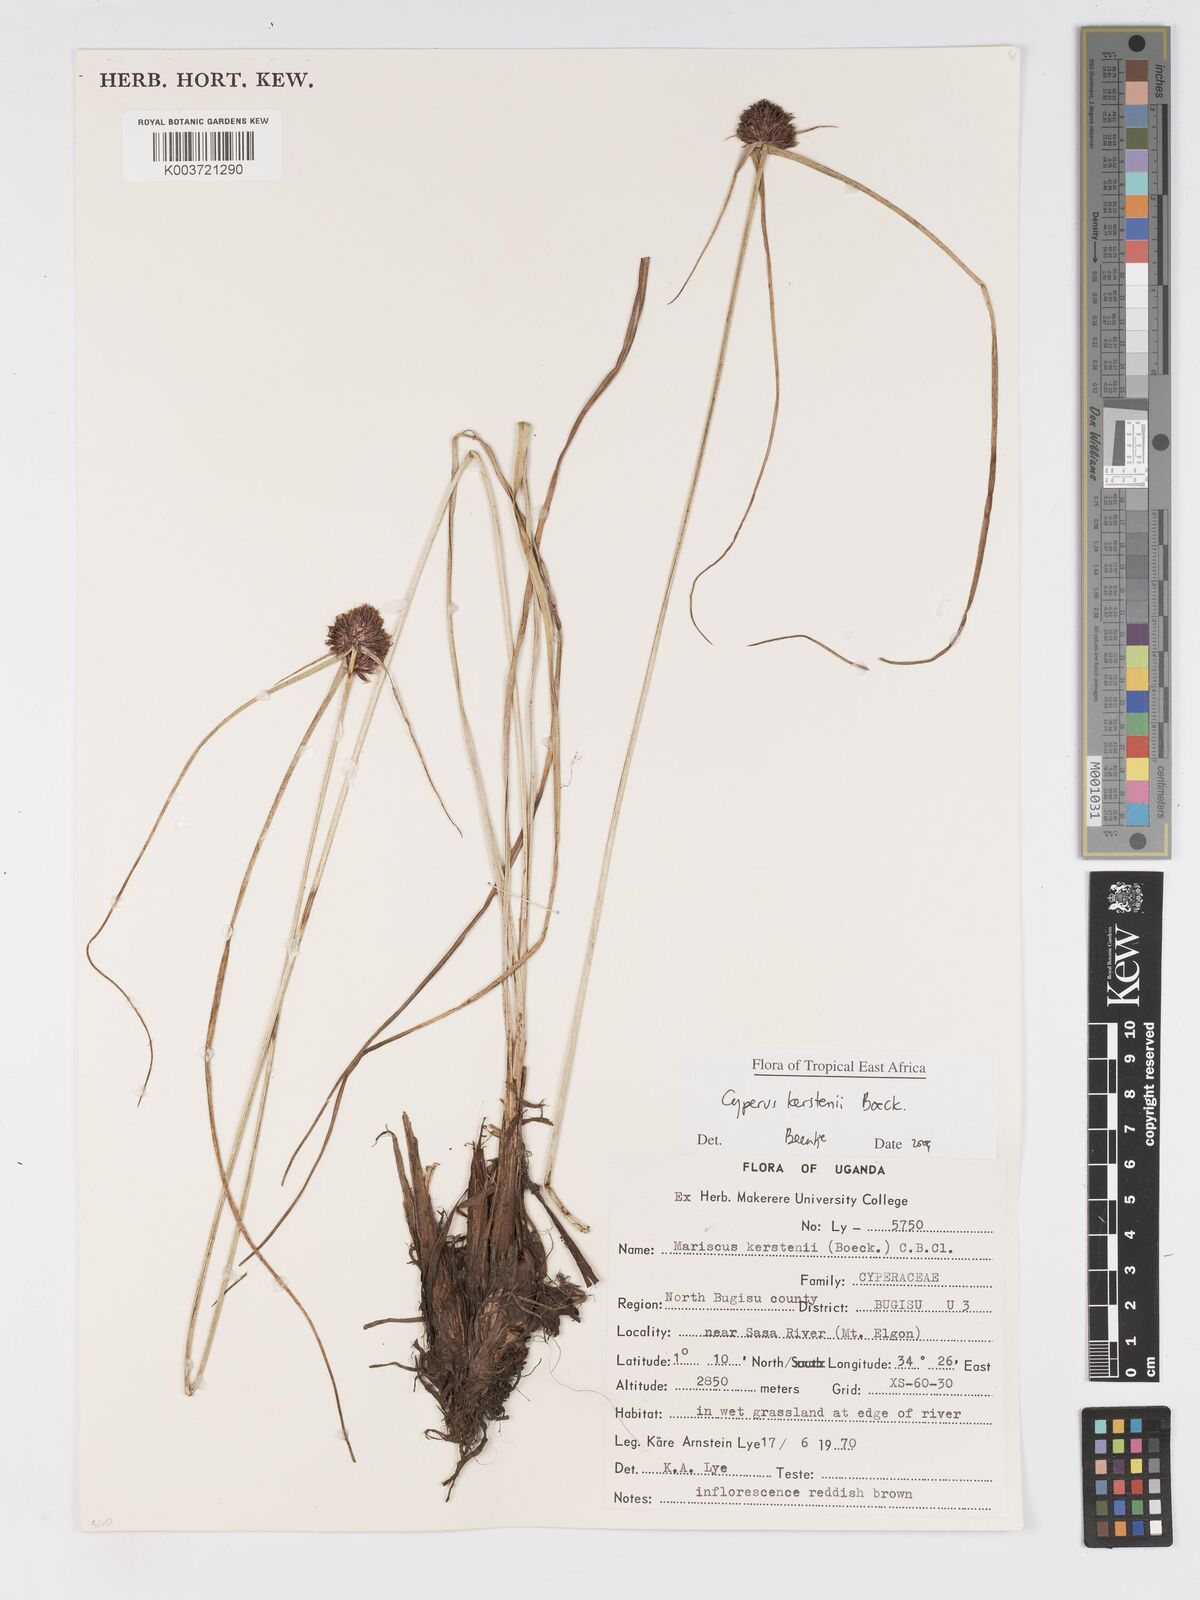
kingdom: Plantae
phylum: Tracheophyta
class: Liliopsida
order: Poales
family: Cyperaceae
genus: Cyperus
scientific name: Cyperus kerstenii
